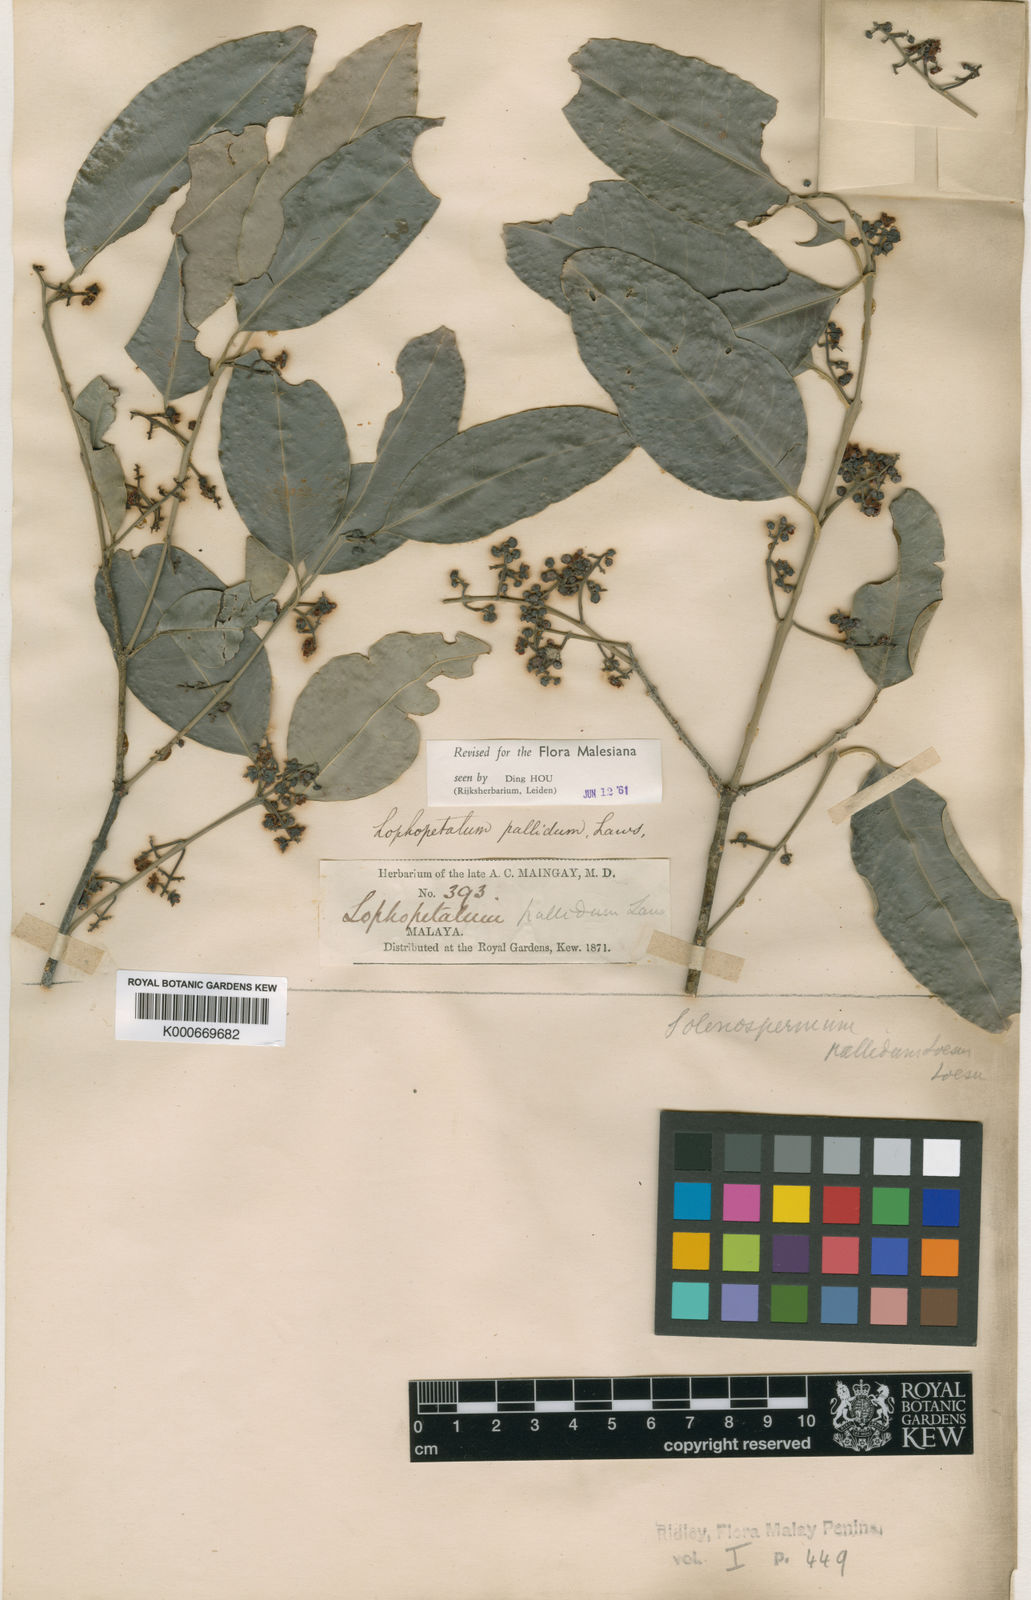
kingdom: Plantae
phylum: Tracheophyta
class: Magnoliopsida
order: Celastrales
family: Celastraceae
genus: Lophopetalum
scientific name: Lophopetalum pallidum
